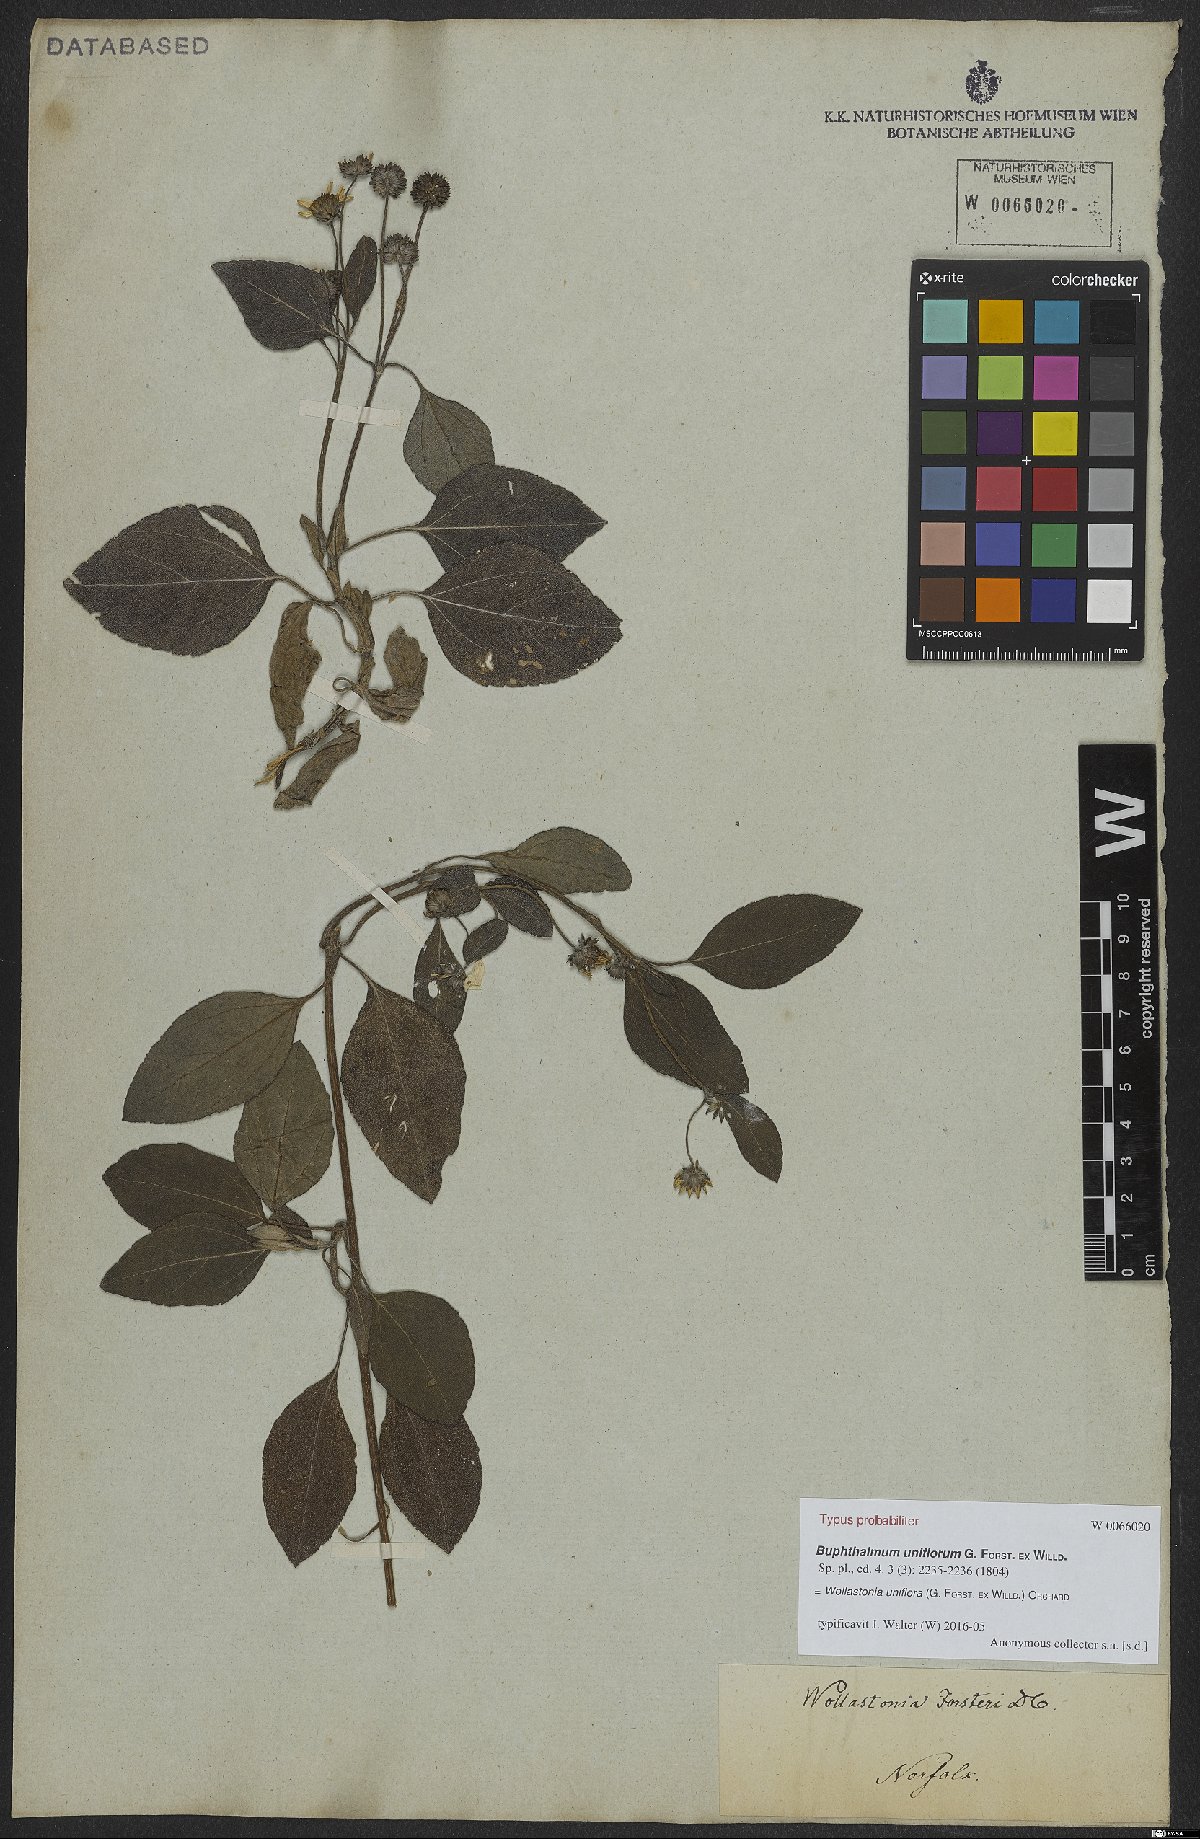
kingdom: Plantae
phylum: Tracheophyta
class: Magnoliopsida
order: Asterales
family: Asteraceae
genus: Wollastonia
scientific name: Wollastonia uniflora
